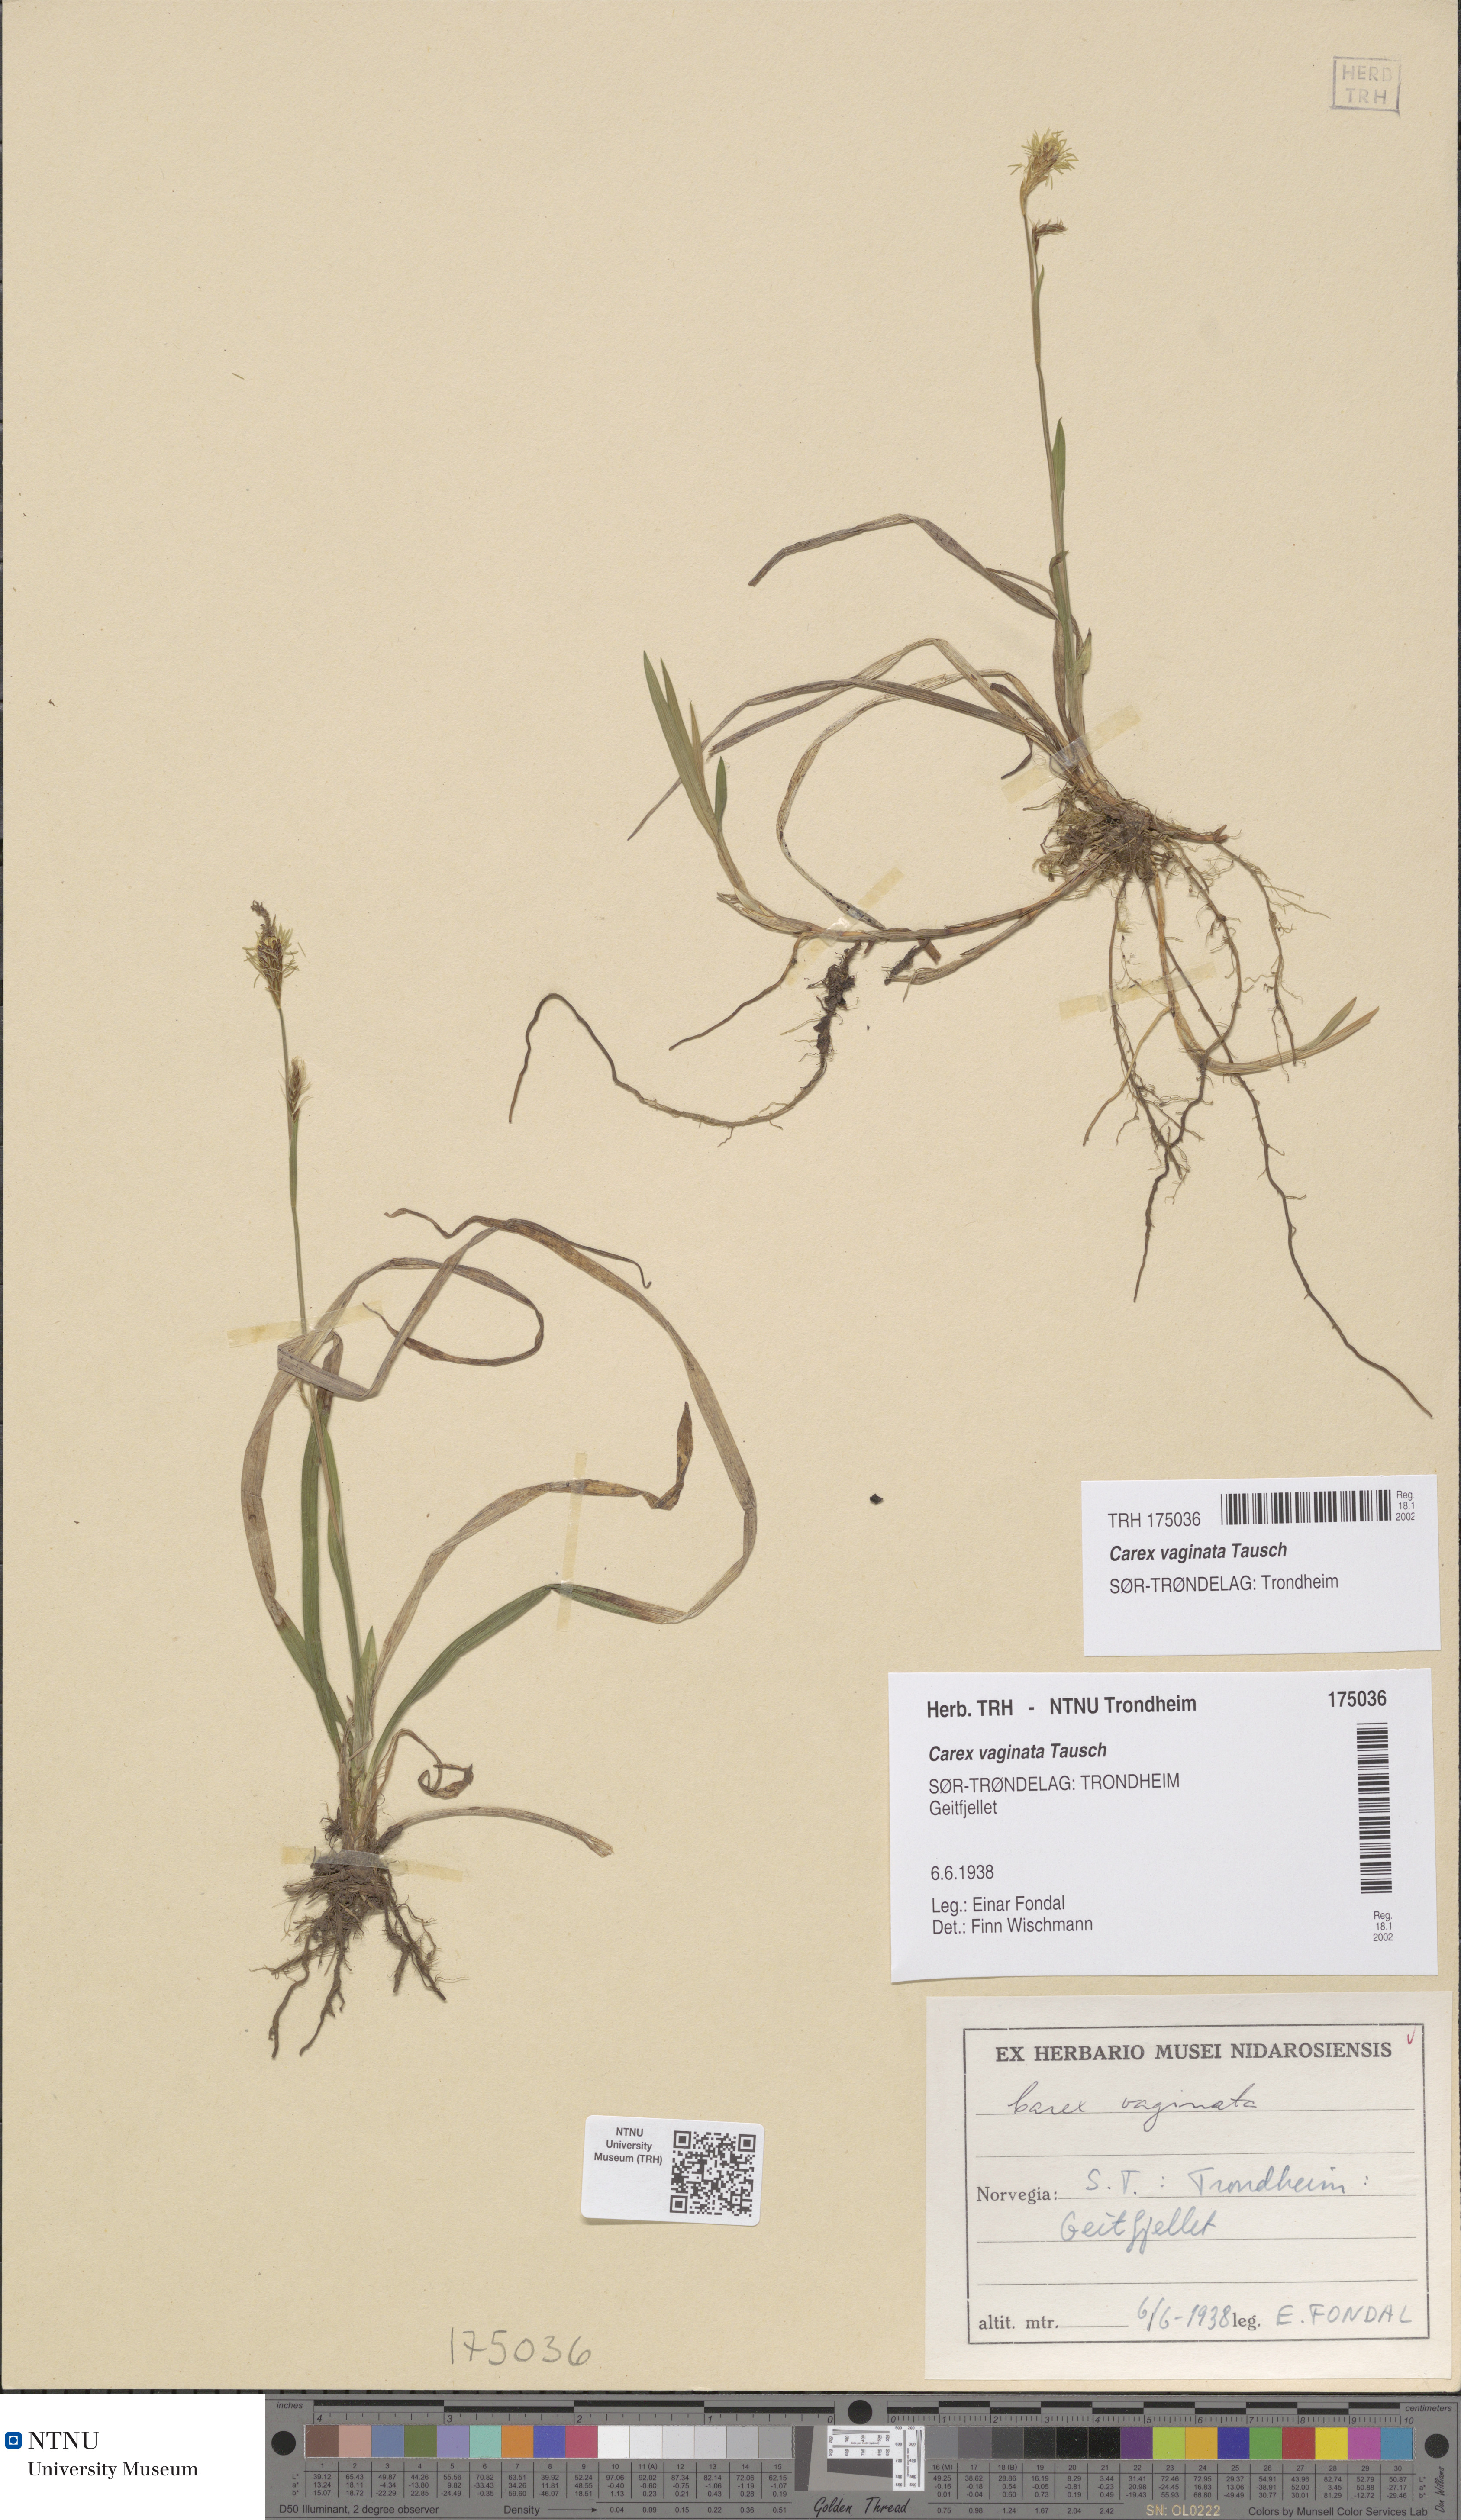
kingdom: Plantae
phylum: Tracheophyta
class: Liliopsida
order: Poales
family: Cyperaceae
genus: Carex
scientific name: Carex vaginata
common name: Sheathed sedge
